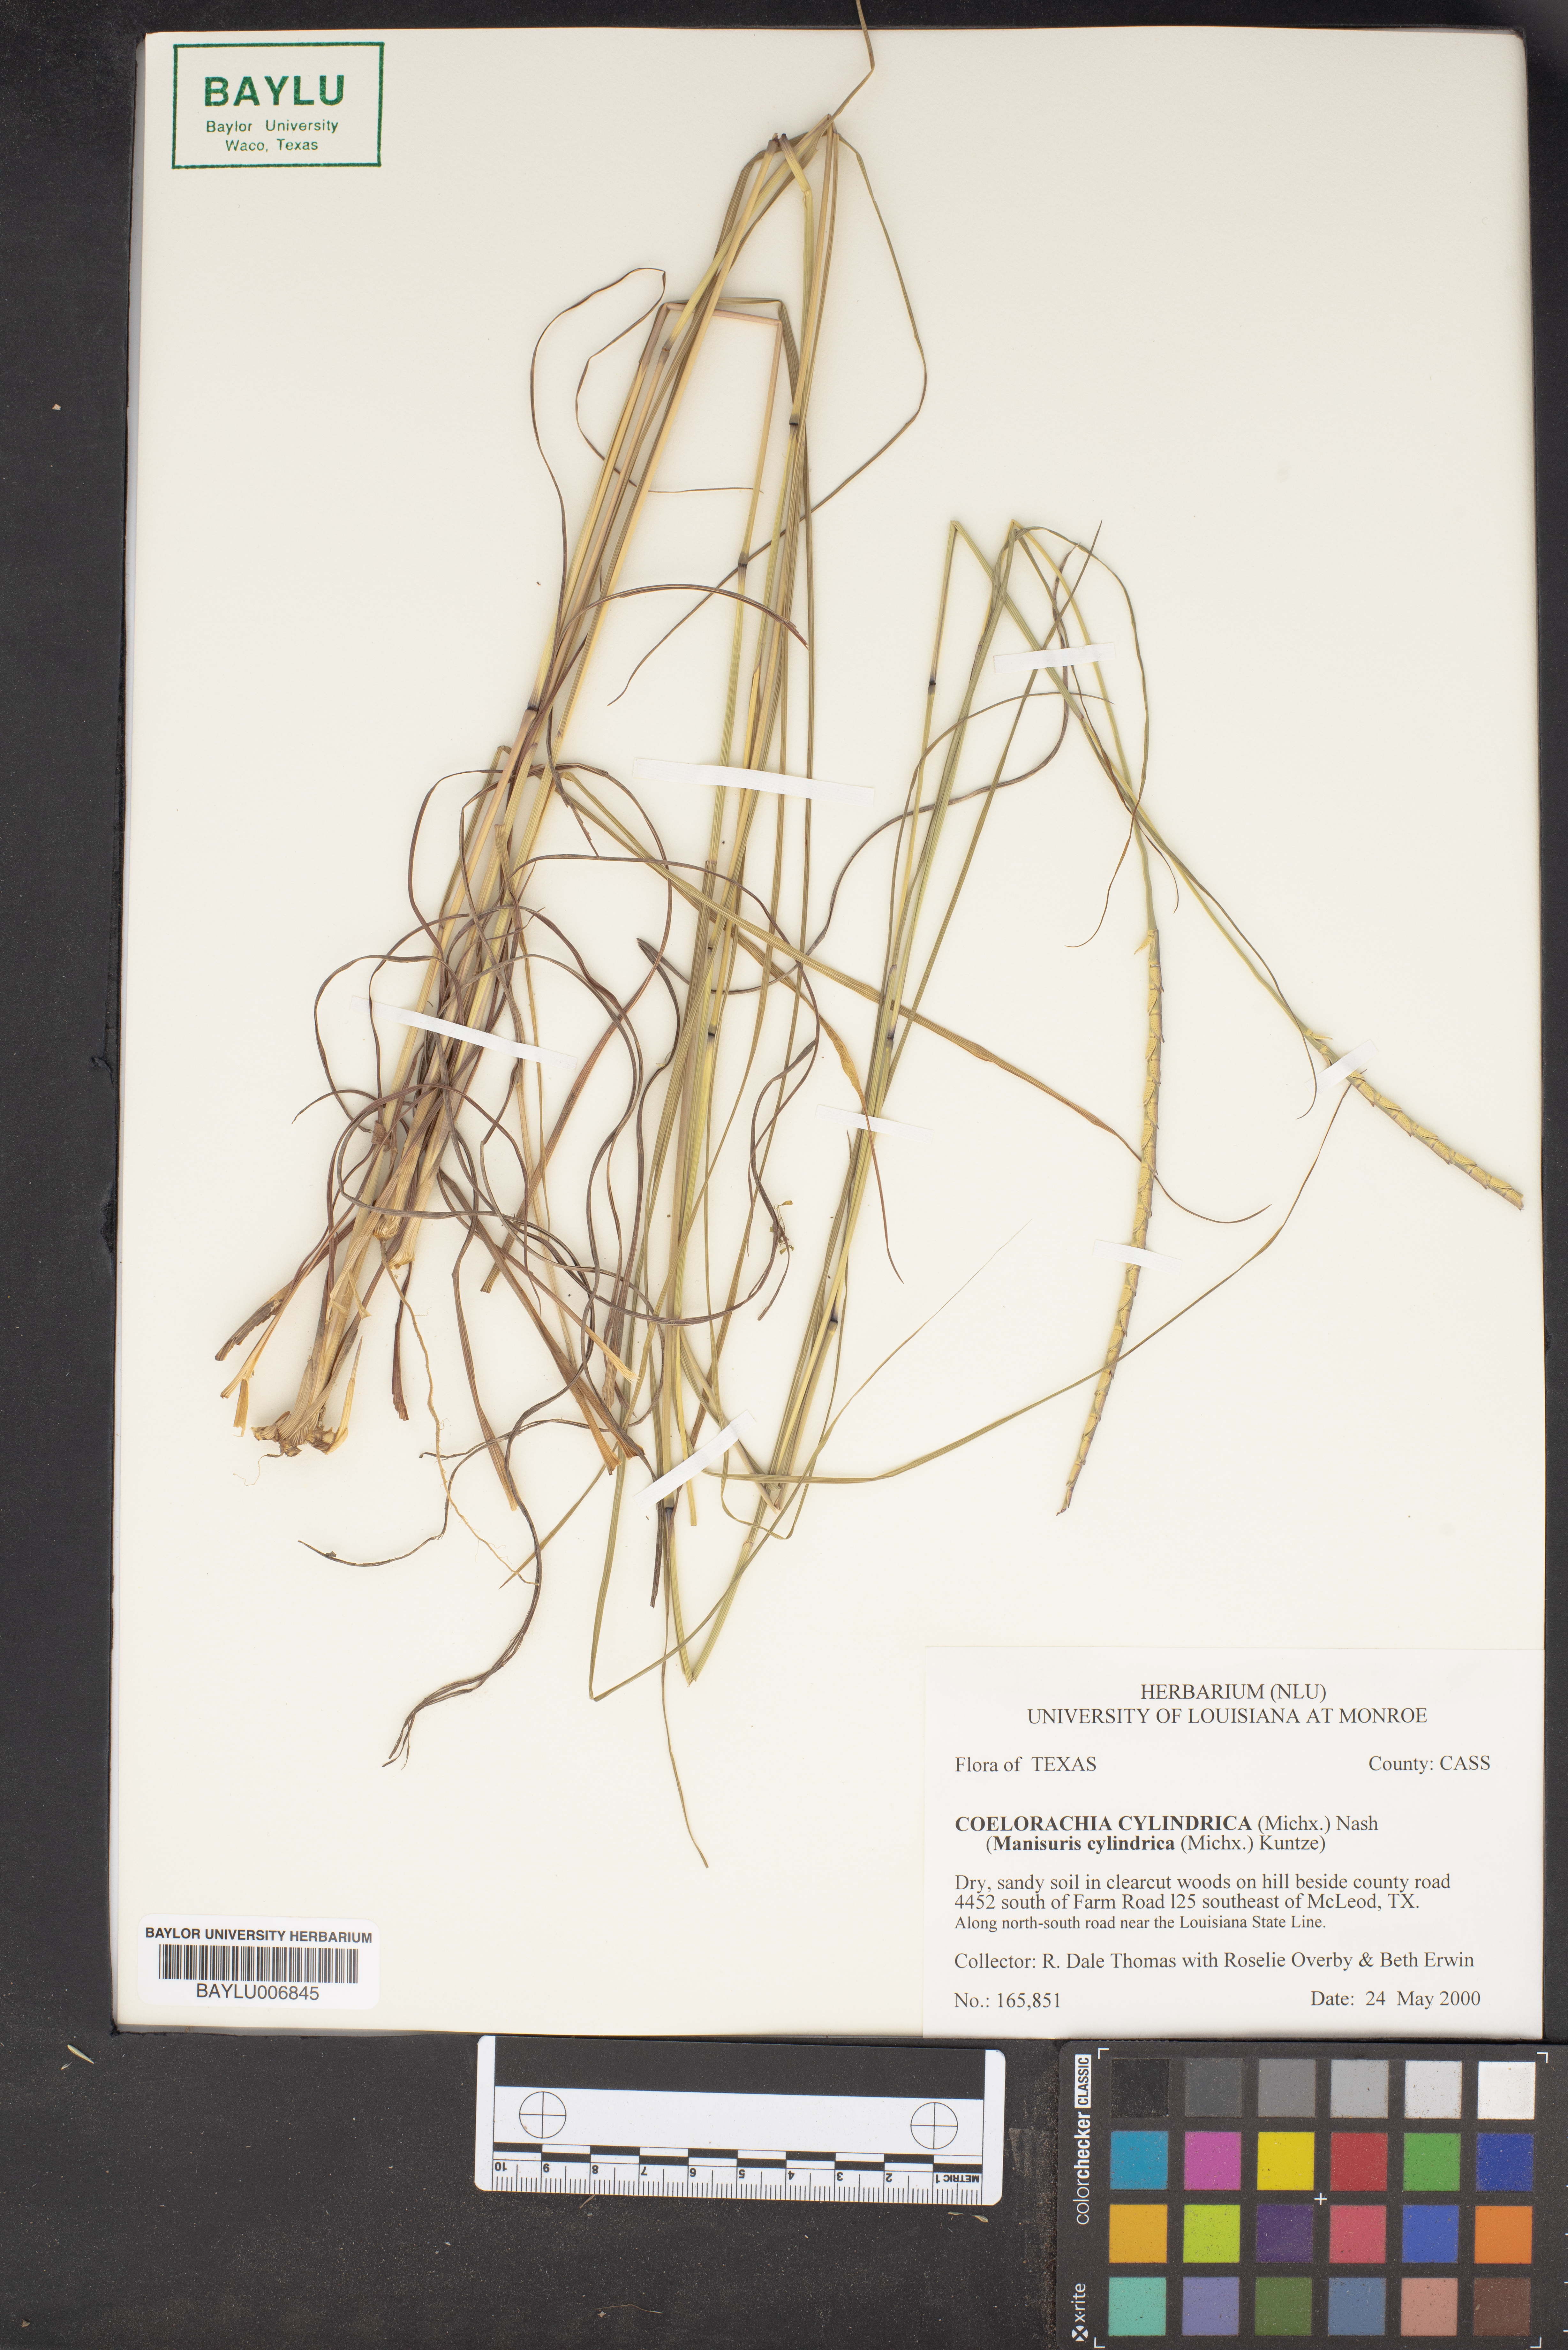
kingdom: Plantae
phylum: Tracheophyta
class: Liliopsida
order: Poales
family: Poaceae
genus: Rottboellia
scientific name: Rottboellia campestris
